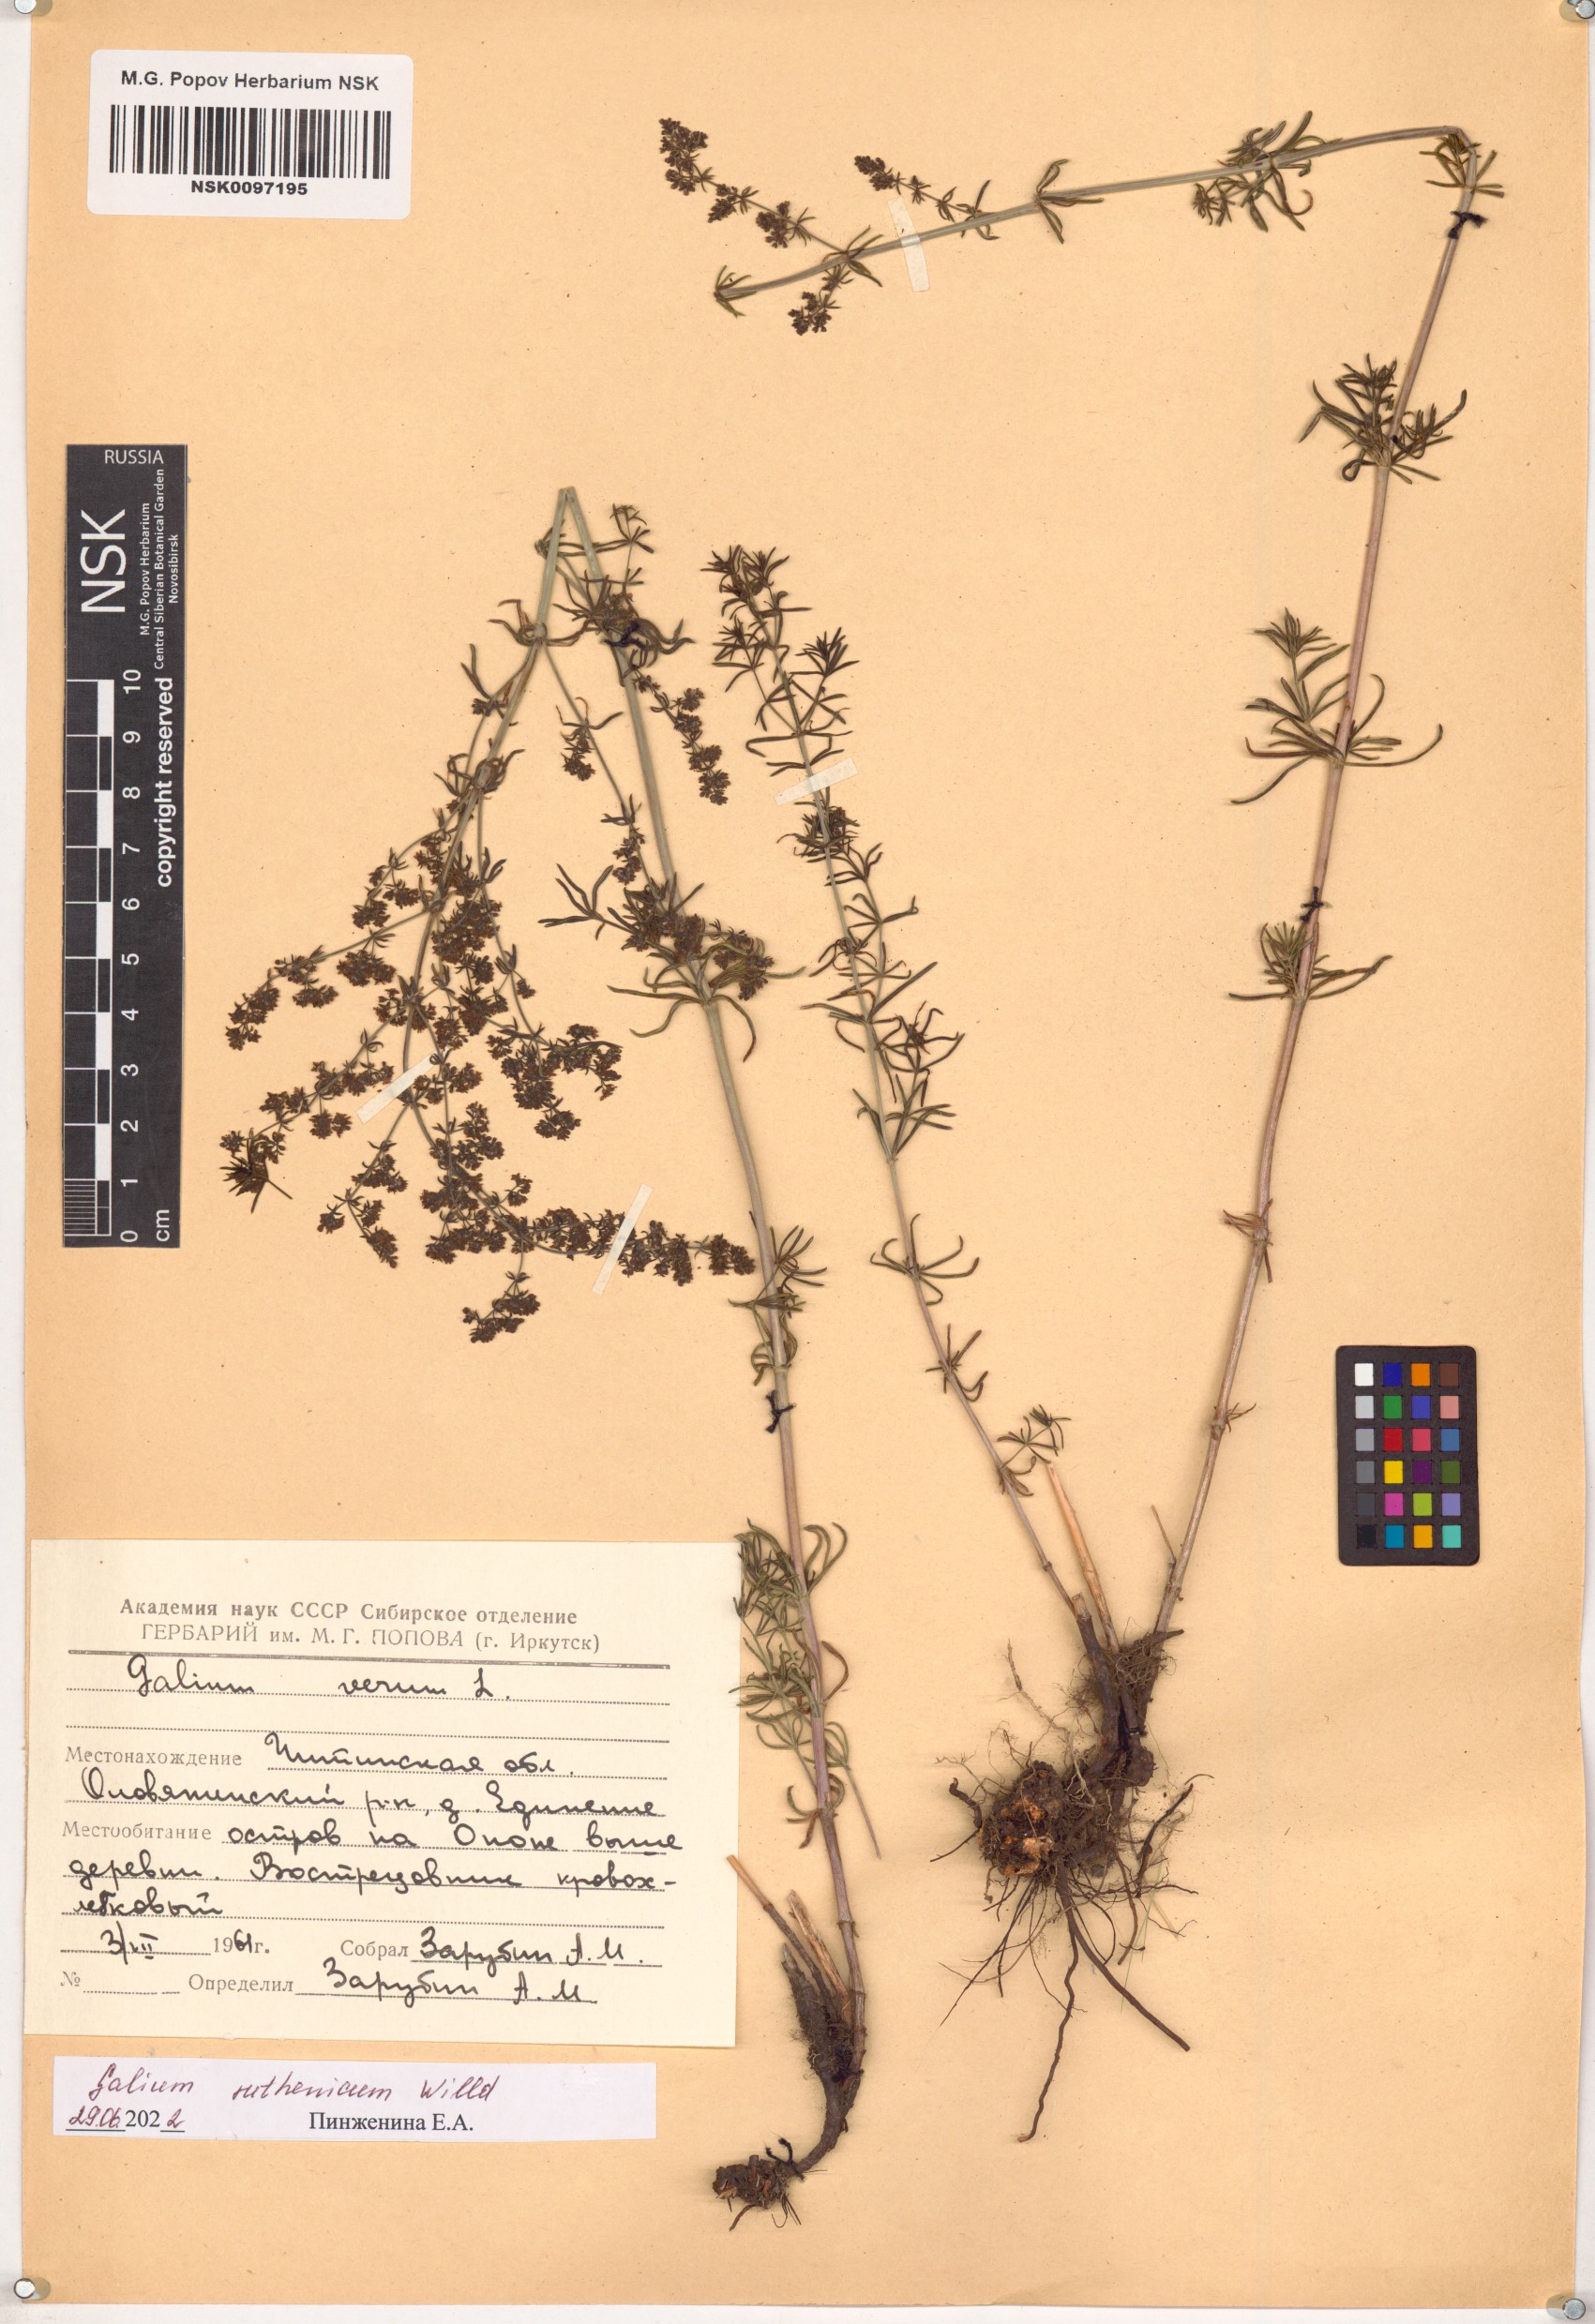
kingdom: Plantae
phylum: Tracheophyta
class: Magnoliopsida
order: Gentianales
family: Rubiaceae
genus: Galium
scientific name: Galium verum
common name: Lady's bedstraw
